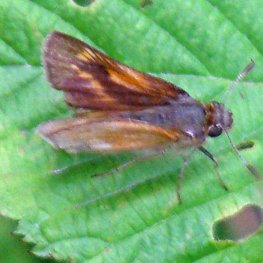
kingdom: Animalia
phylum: Arthropoda
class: Insecta
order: Lepidoptera
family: Hesperiidae
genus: Polites
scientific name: Polites
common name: Long Dash Skipper
